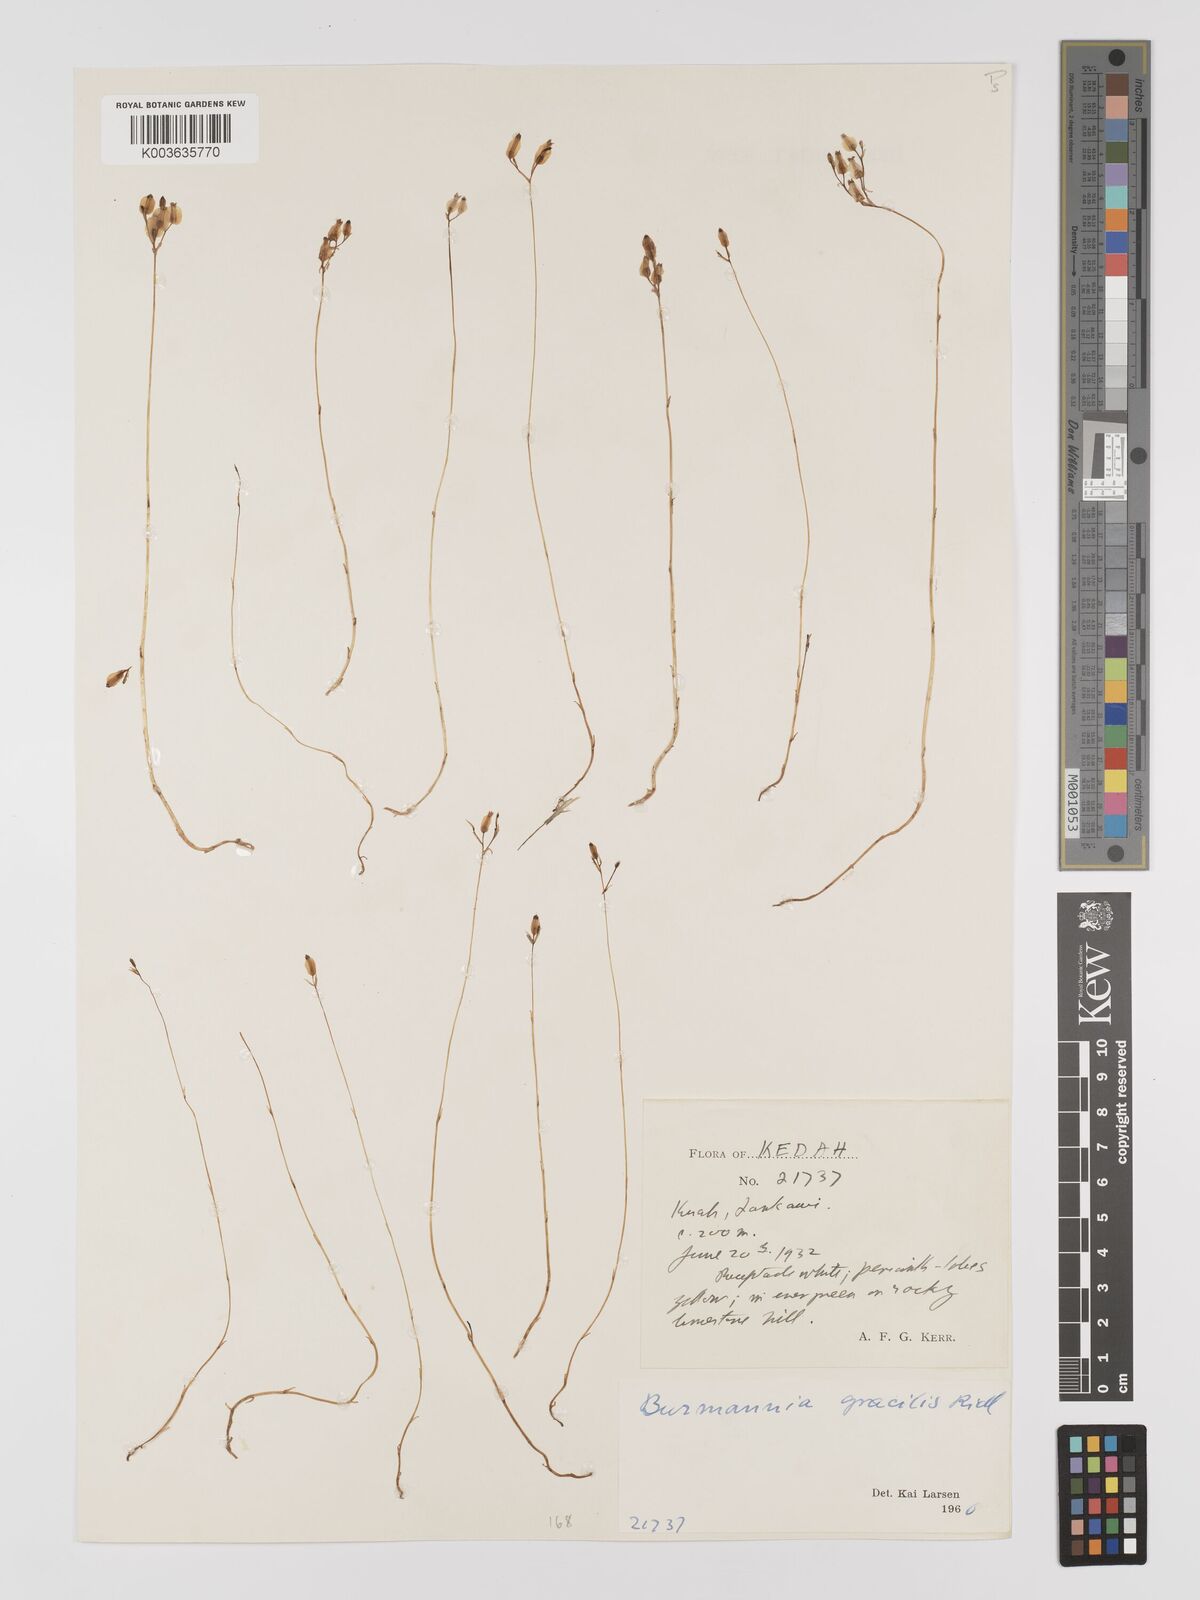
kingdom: Plantae
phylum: Tracheophyta
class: Liliopsida
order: Dioscoreales
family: Burmanniaceae
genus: Burmannia
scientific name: Burmannia gracilis
